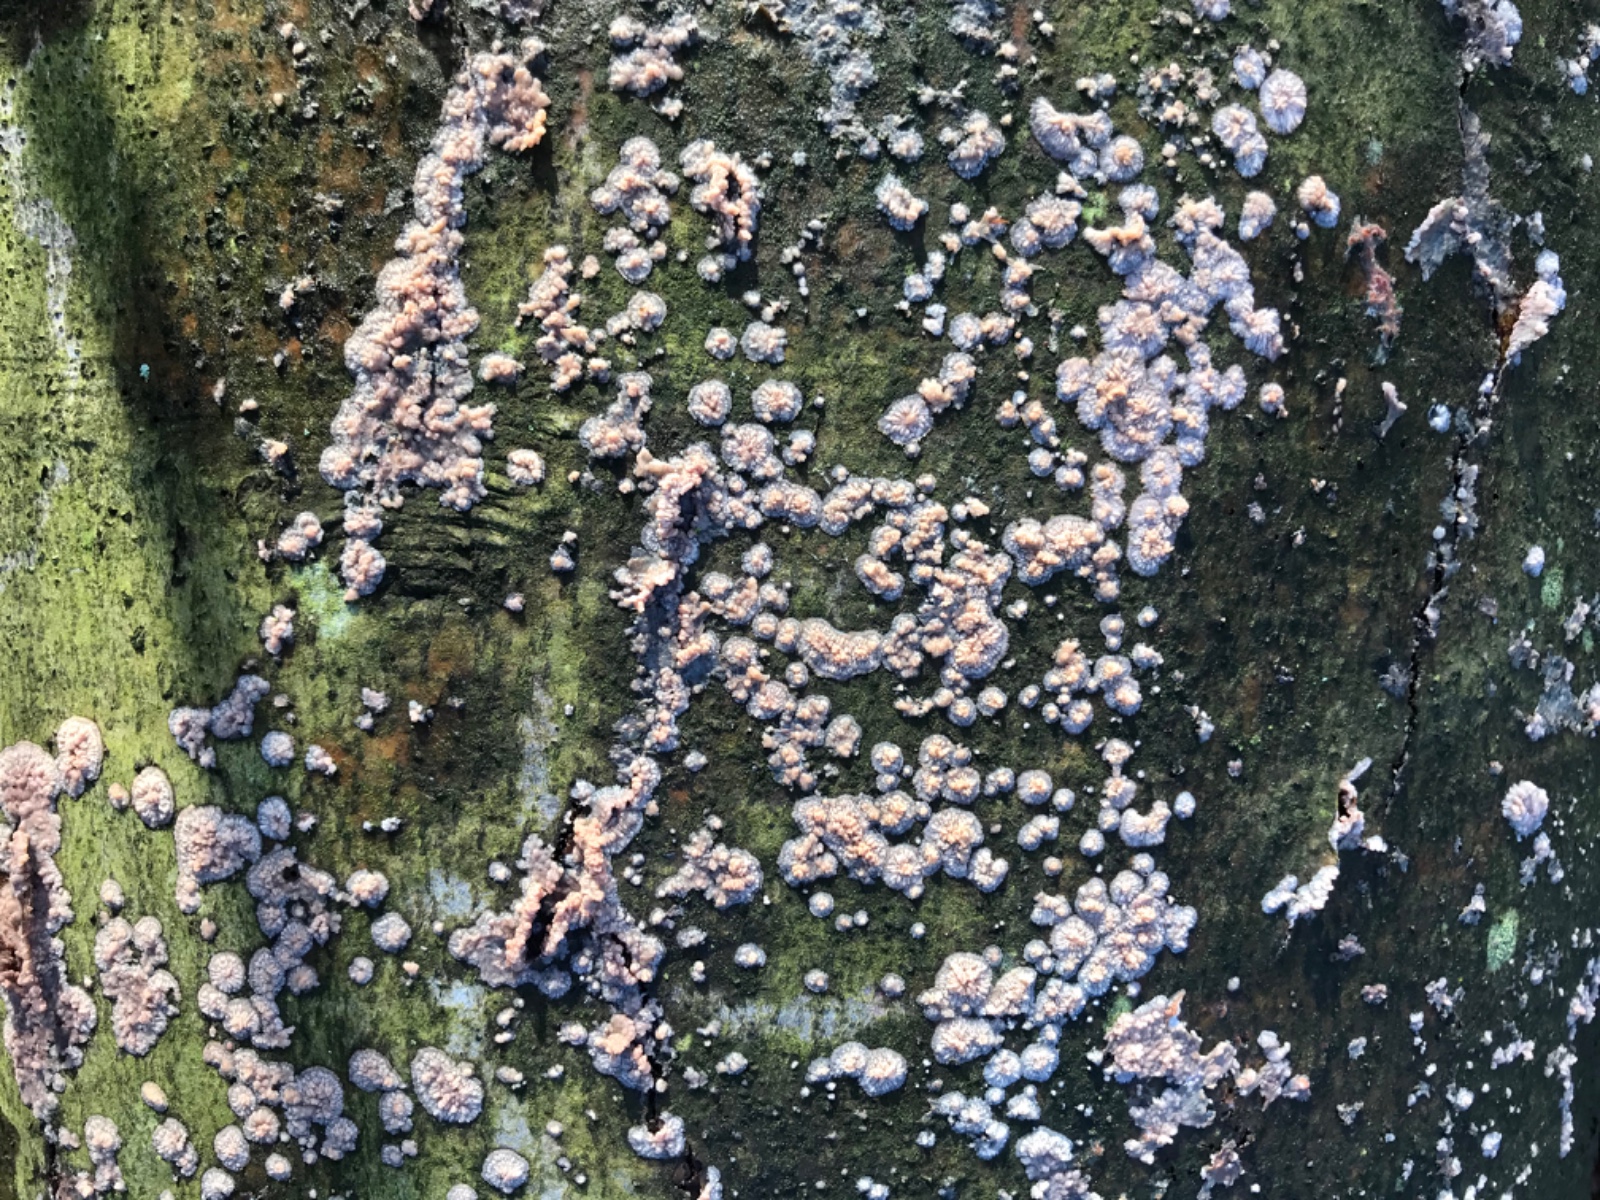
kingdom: Fungi
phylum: Basidiomycota
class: Agaricomycetes
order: Polyporales
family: Meruliaceae
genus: Phlebia
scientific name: Phlebia radiata
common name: stråle-åresvamp
